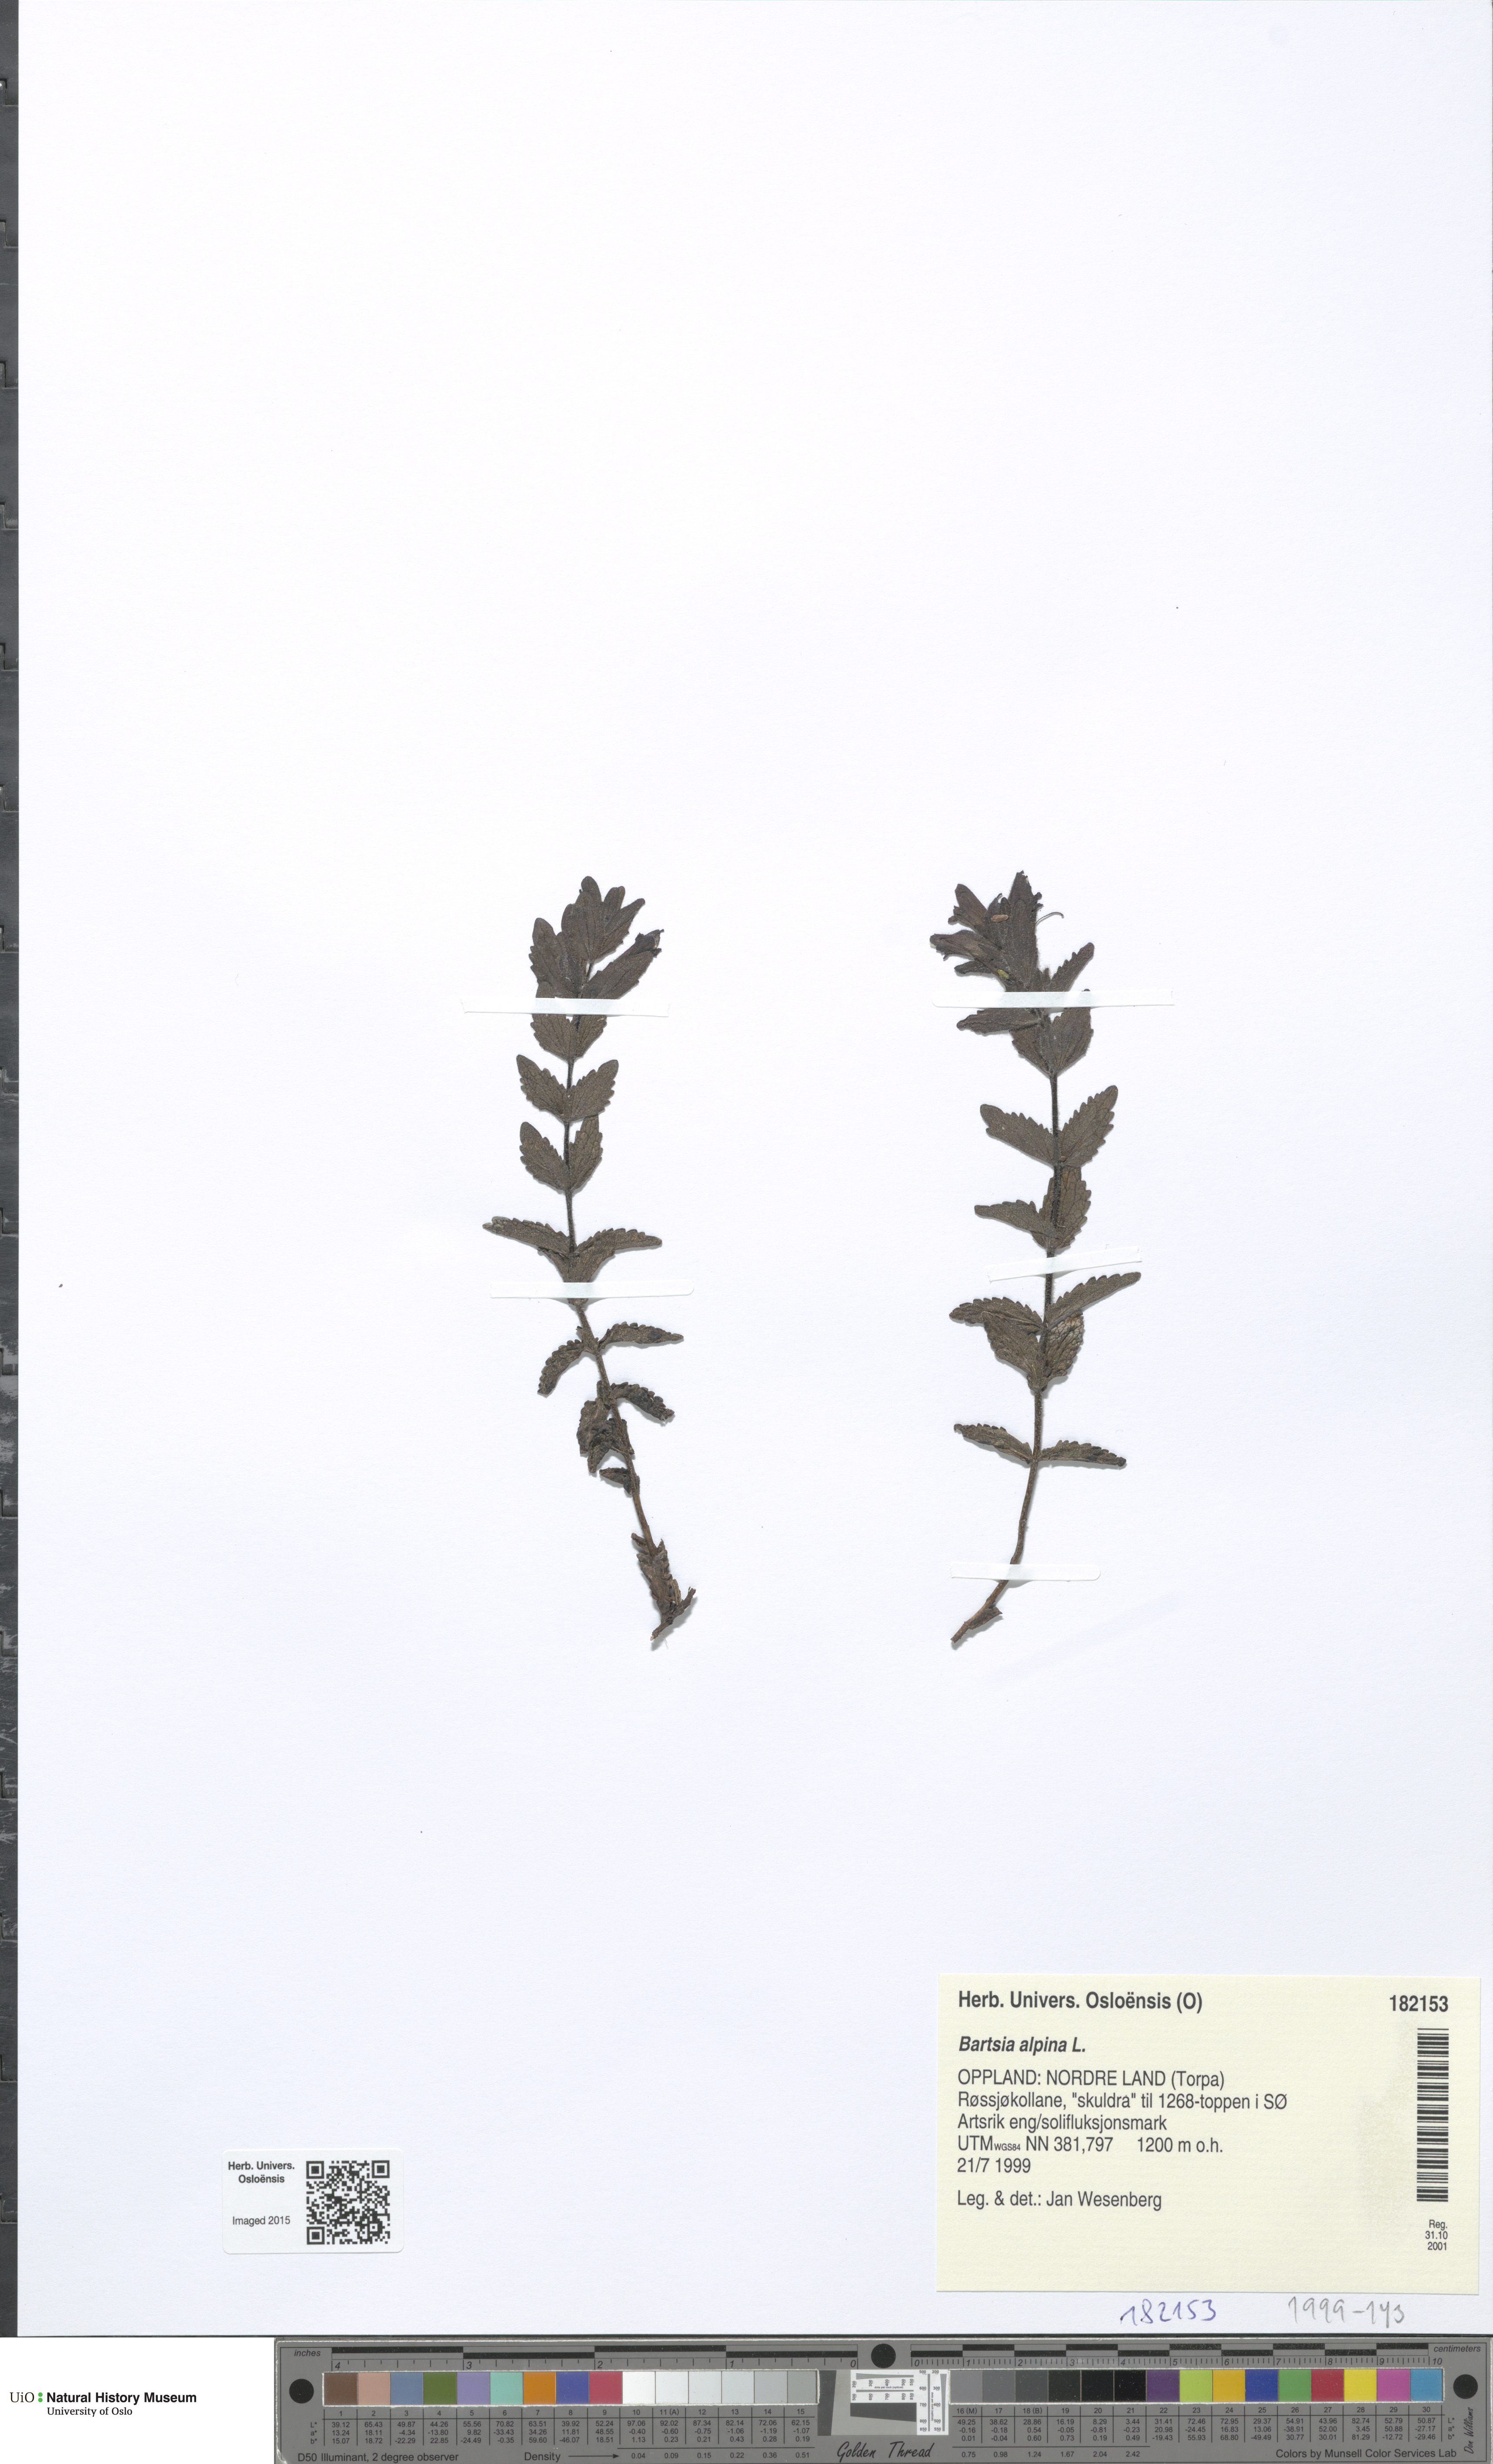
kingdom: Plantae
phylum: Tracheophyta
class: Magnoliopsida
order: Lamiales
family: Orobanchaceae
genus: Bartsia
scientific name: Bartsia alpina
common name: Alpine bartsia
